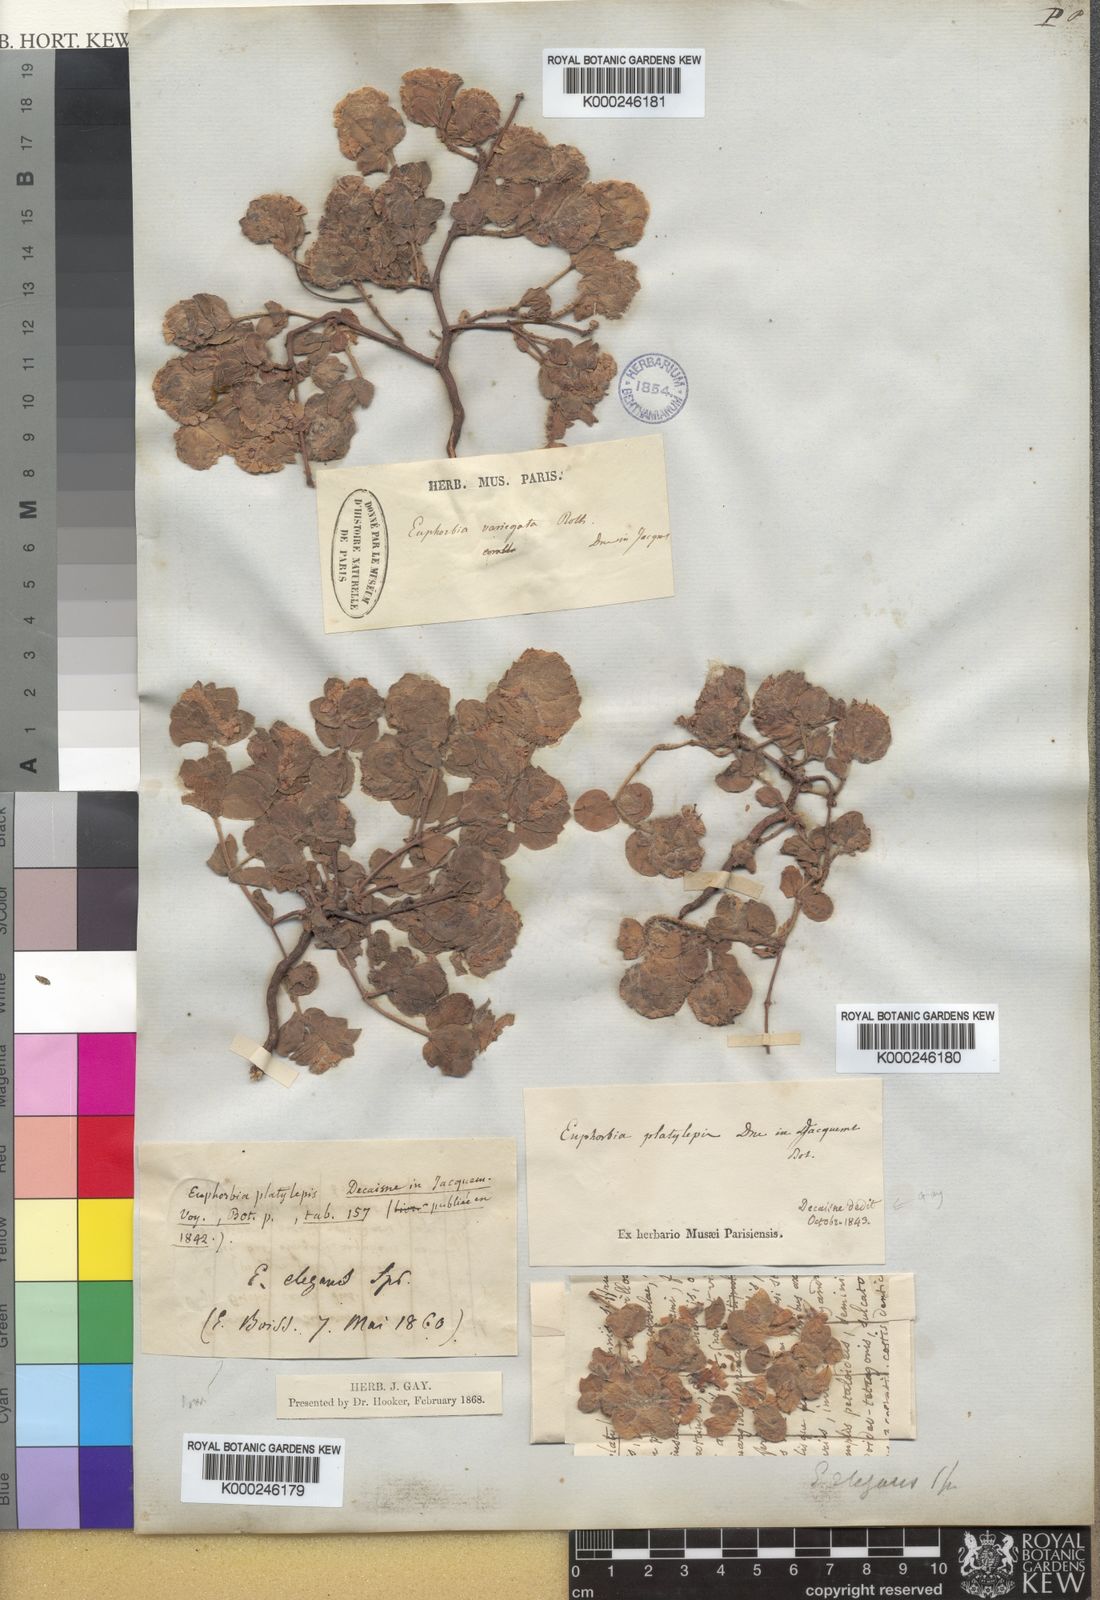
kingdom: Plantae
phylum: Tracheophyta
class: Magnoliopsida
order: Malpighiales
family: Euphorbiaceae
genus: Euphorbia
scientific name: Euphorbia elegans
